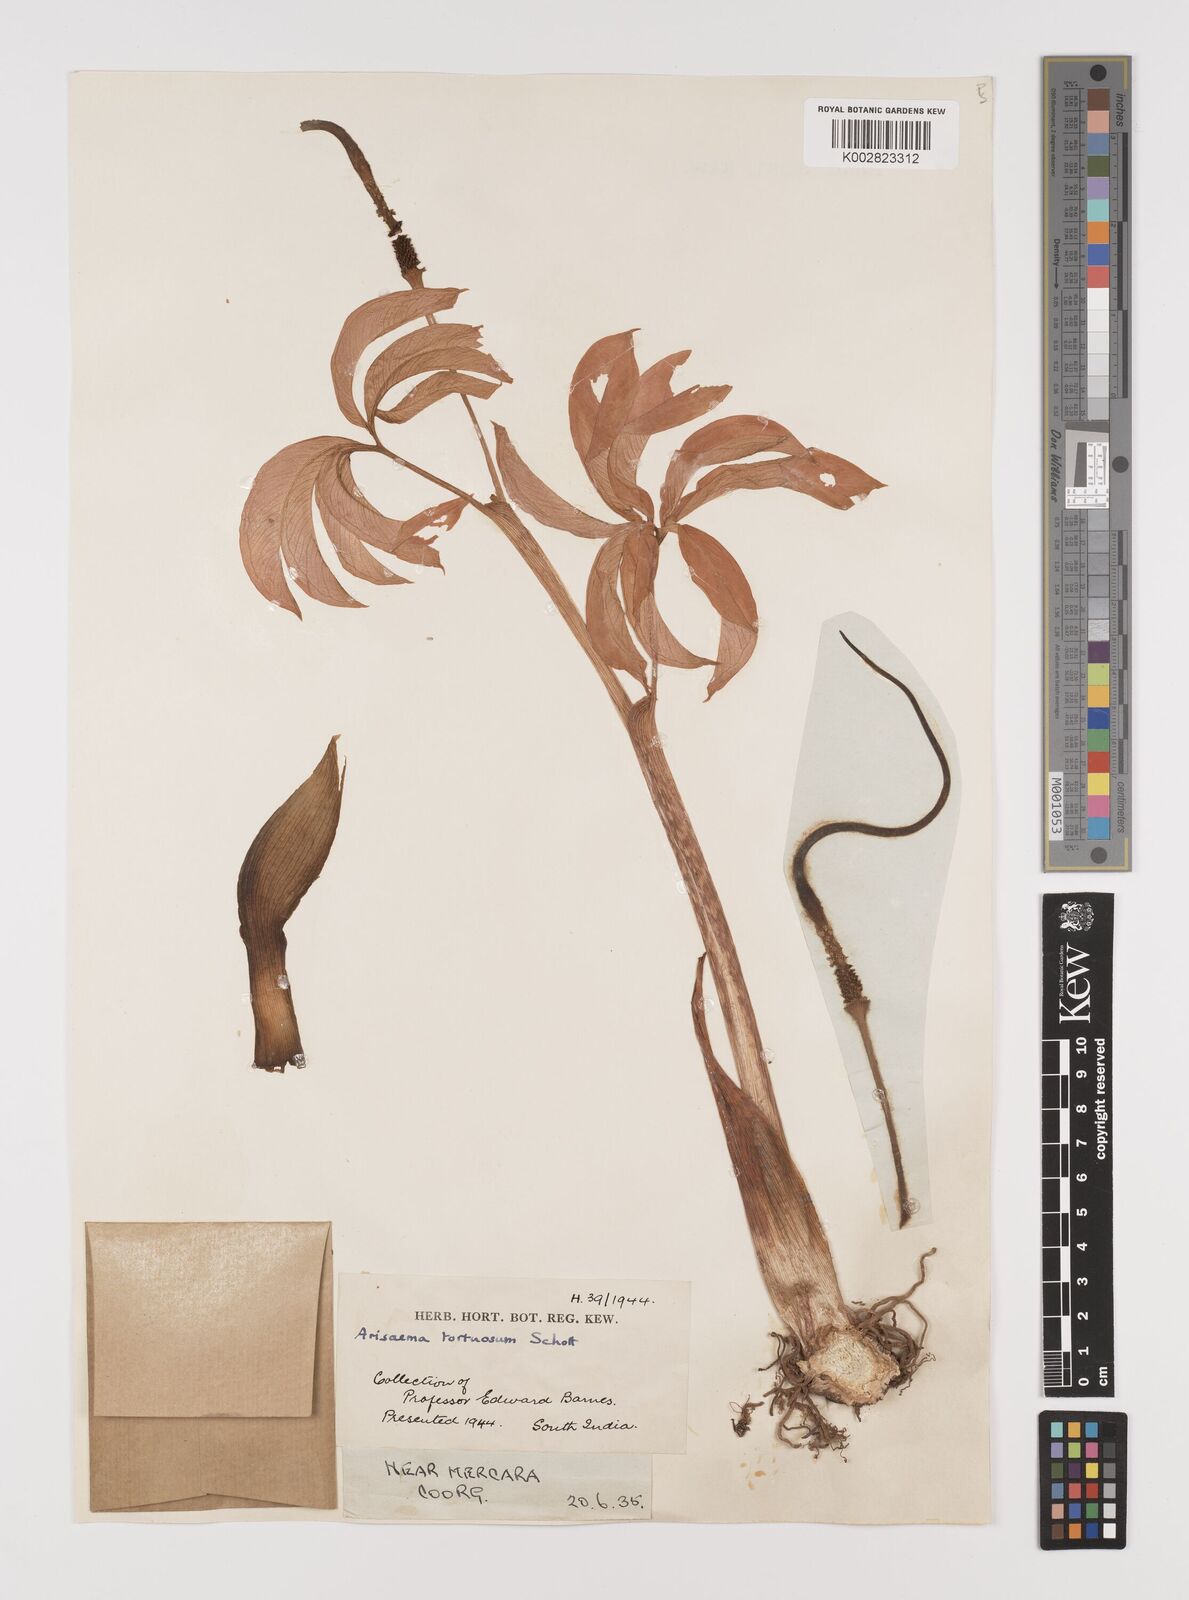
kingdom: Plantae
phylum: Tracheophyta
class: Liliopsida
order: Alismatales
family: Araceae
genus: Arisaema
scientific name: Arisaema tortuosum
